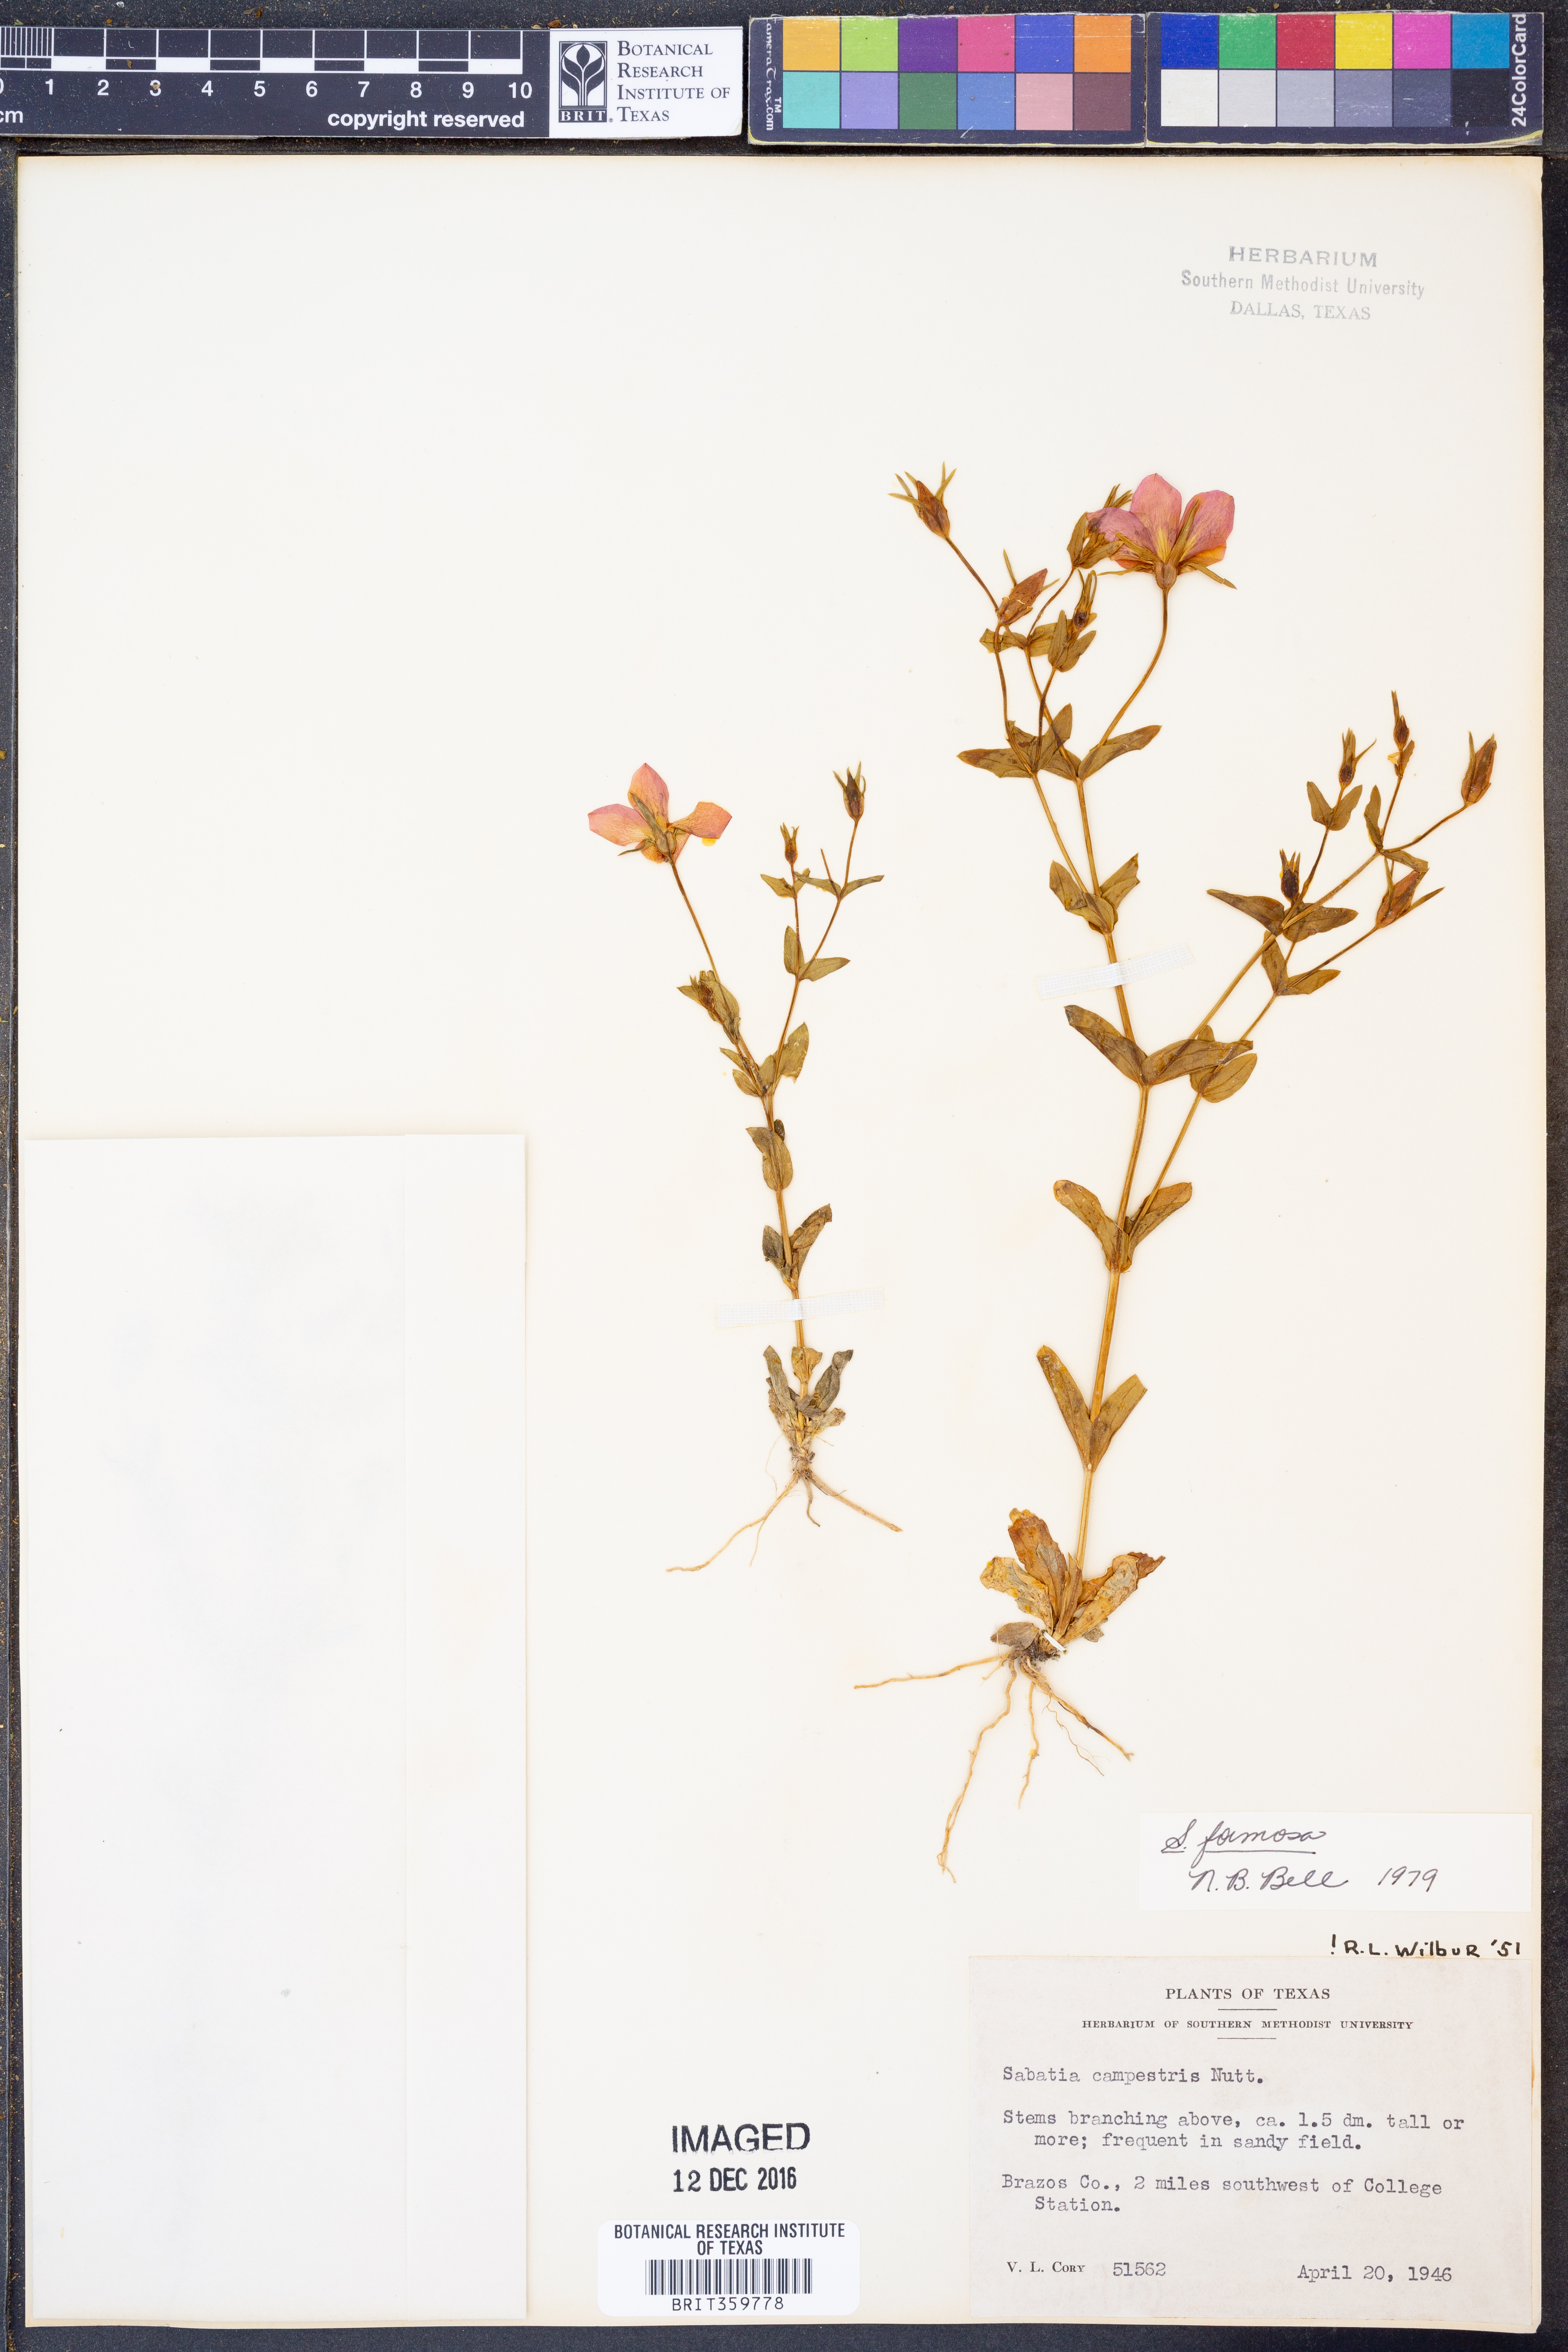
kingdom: Plantae
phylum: Tracheophyta
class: Magnoliopsida
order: Gentianales
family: Gentianaceae
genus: Sabatia
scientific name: Sabatia formosa
